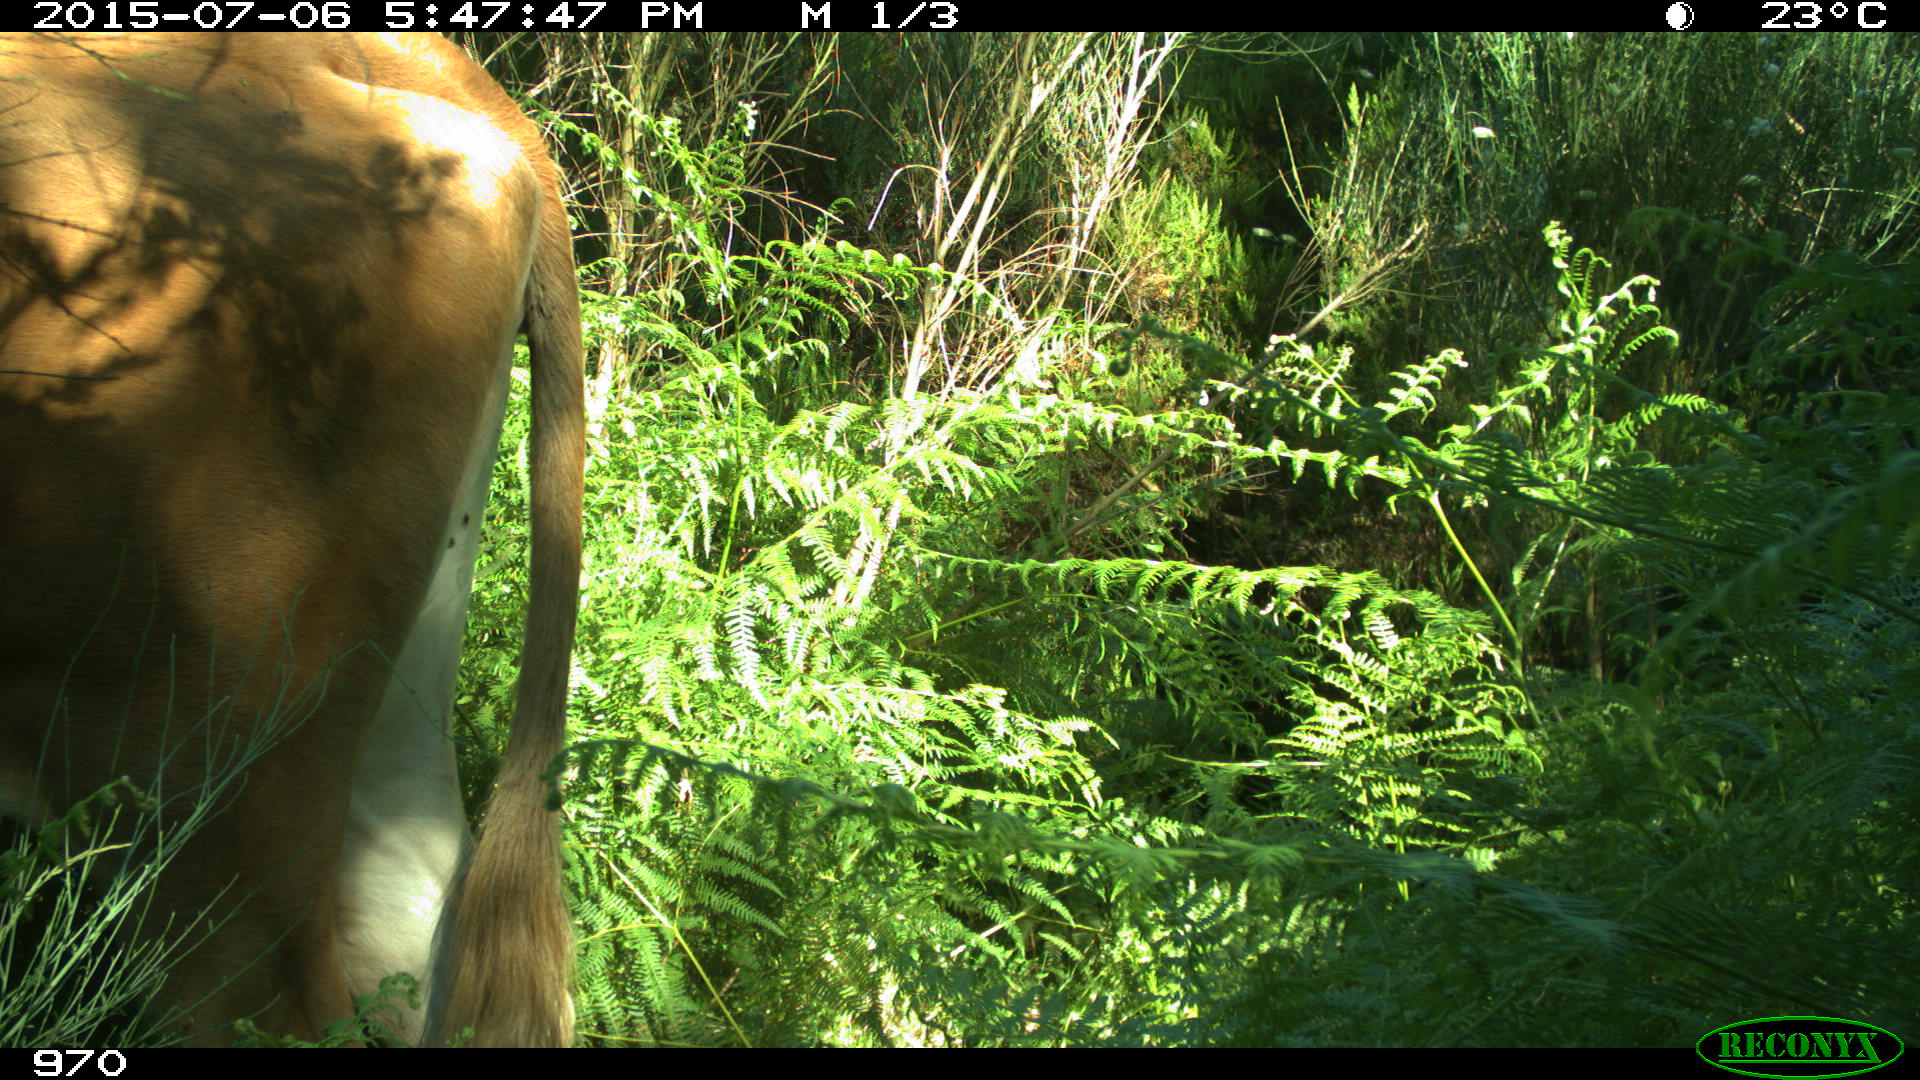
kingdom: Animalia
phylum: Chordata
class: Mammalia
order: Artiodactyla
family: Bovidae
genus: Bos
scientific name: Bos taurus
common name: Domesticated cattle
